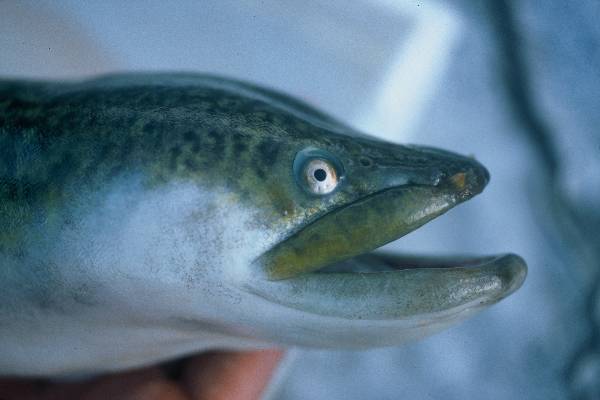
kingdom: Animalia
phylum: Chordata
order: Anguilliformes
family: Anguillidae
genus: Anguilla
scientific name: Anguilla labiata
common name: African mottled eel
